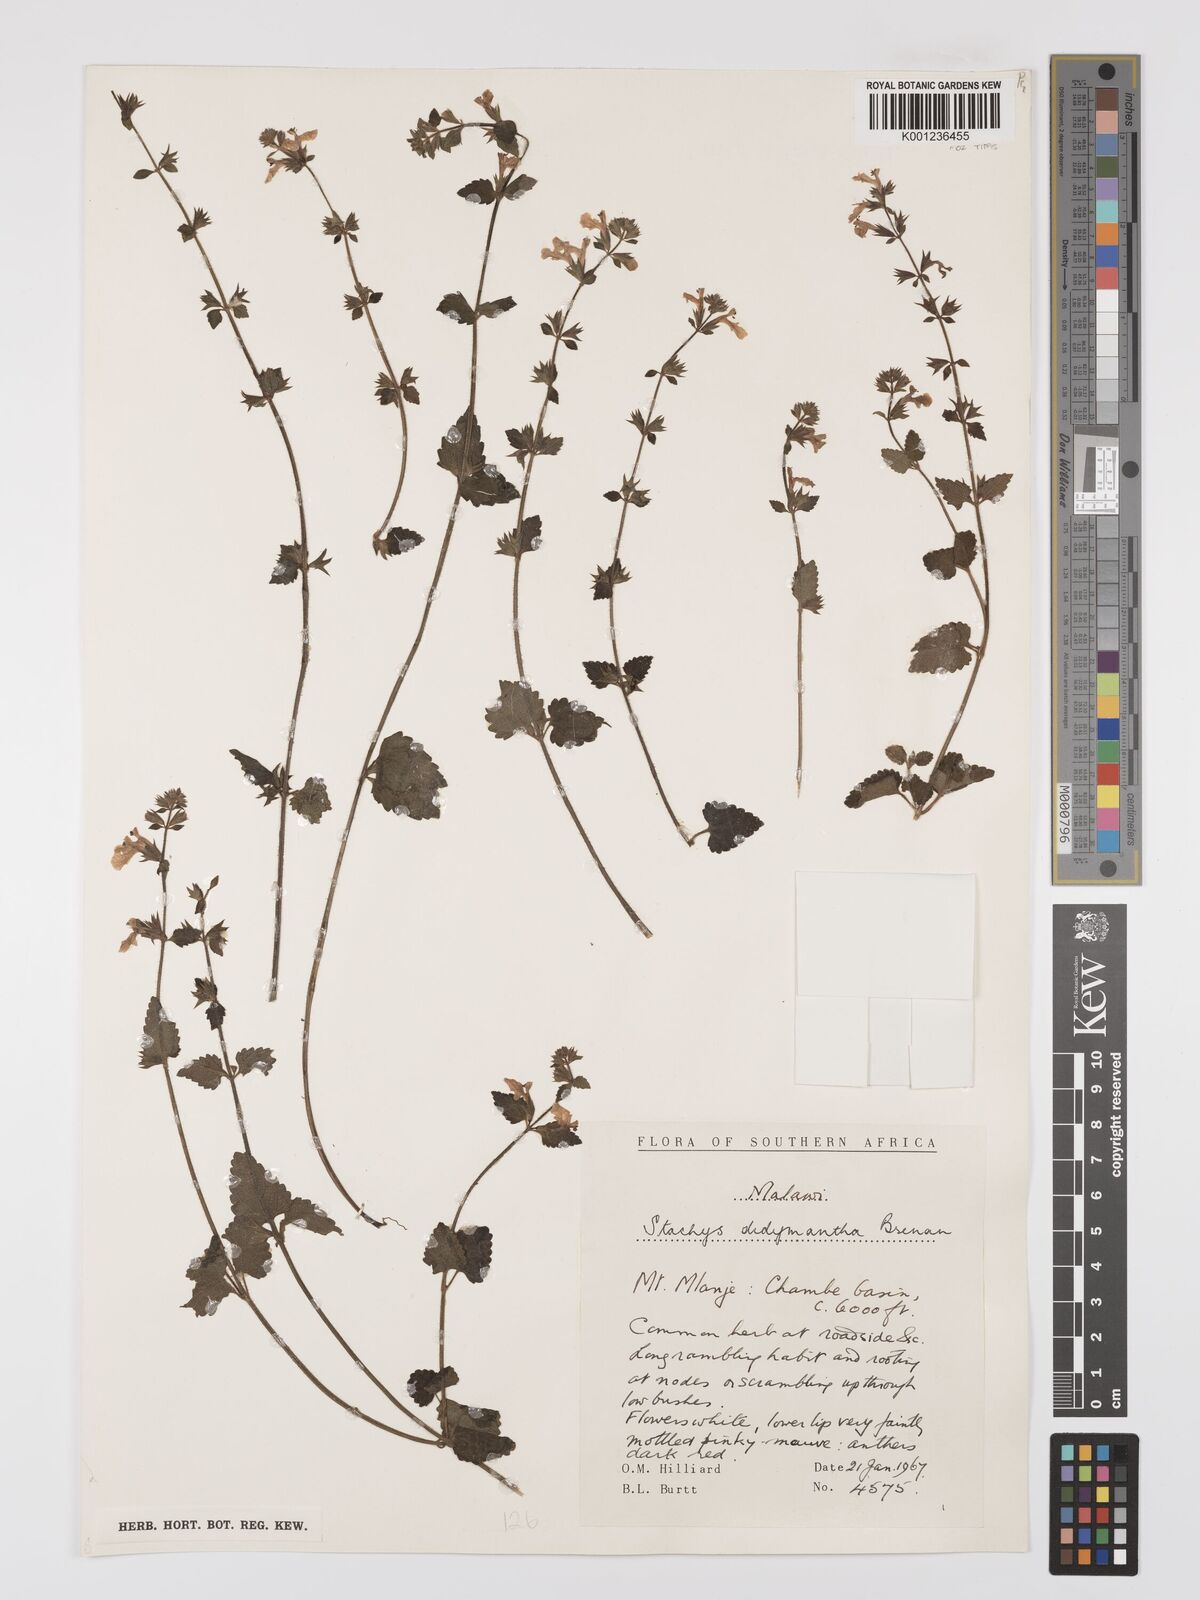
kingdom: Plantae
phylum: Tracheophyta
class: Magnoliopsida
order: Lamiales
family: Lamiaceae
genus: Stachys
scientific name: Stachys didymantha
